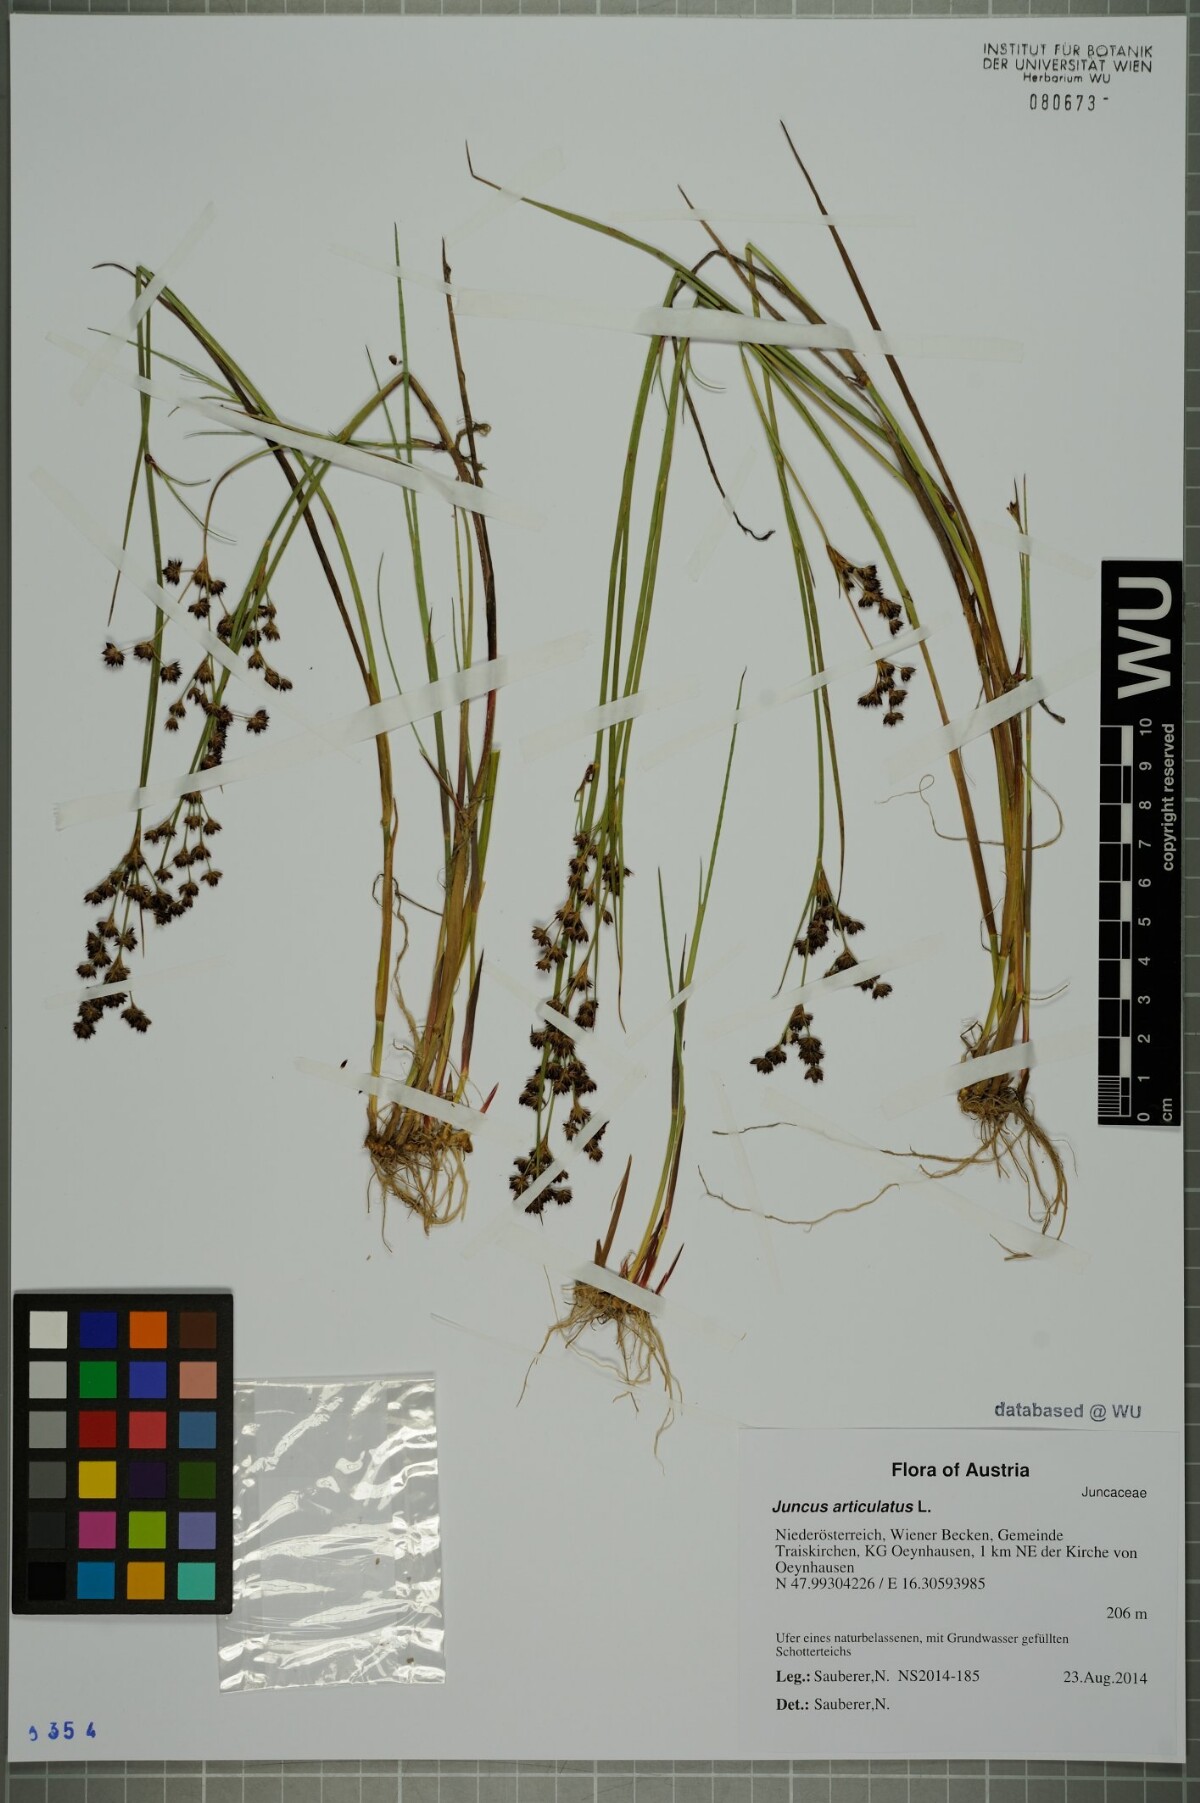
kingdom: Plantae
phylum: Tracheophyta
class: Liliopsida
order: Poales
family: Juncaceae
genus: Juncus
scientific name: Juncus articulatus
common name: Jointed rush
